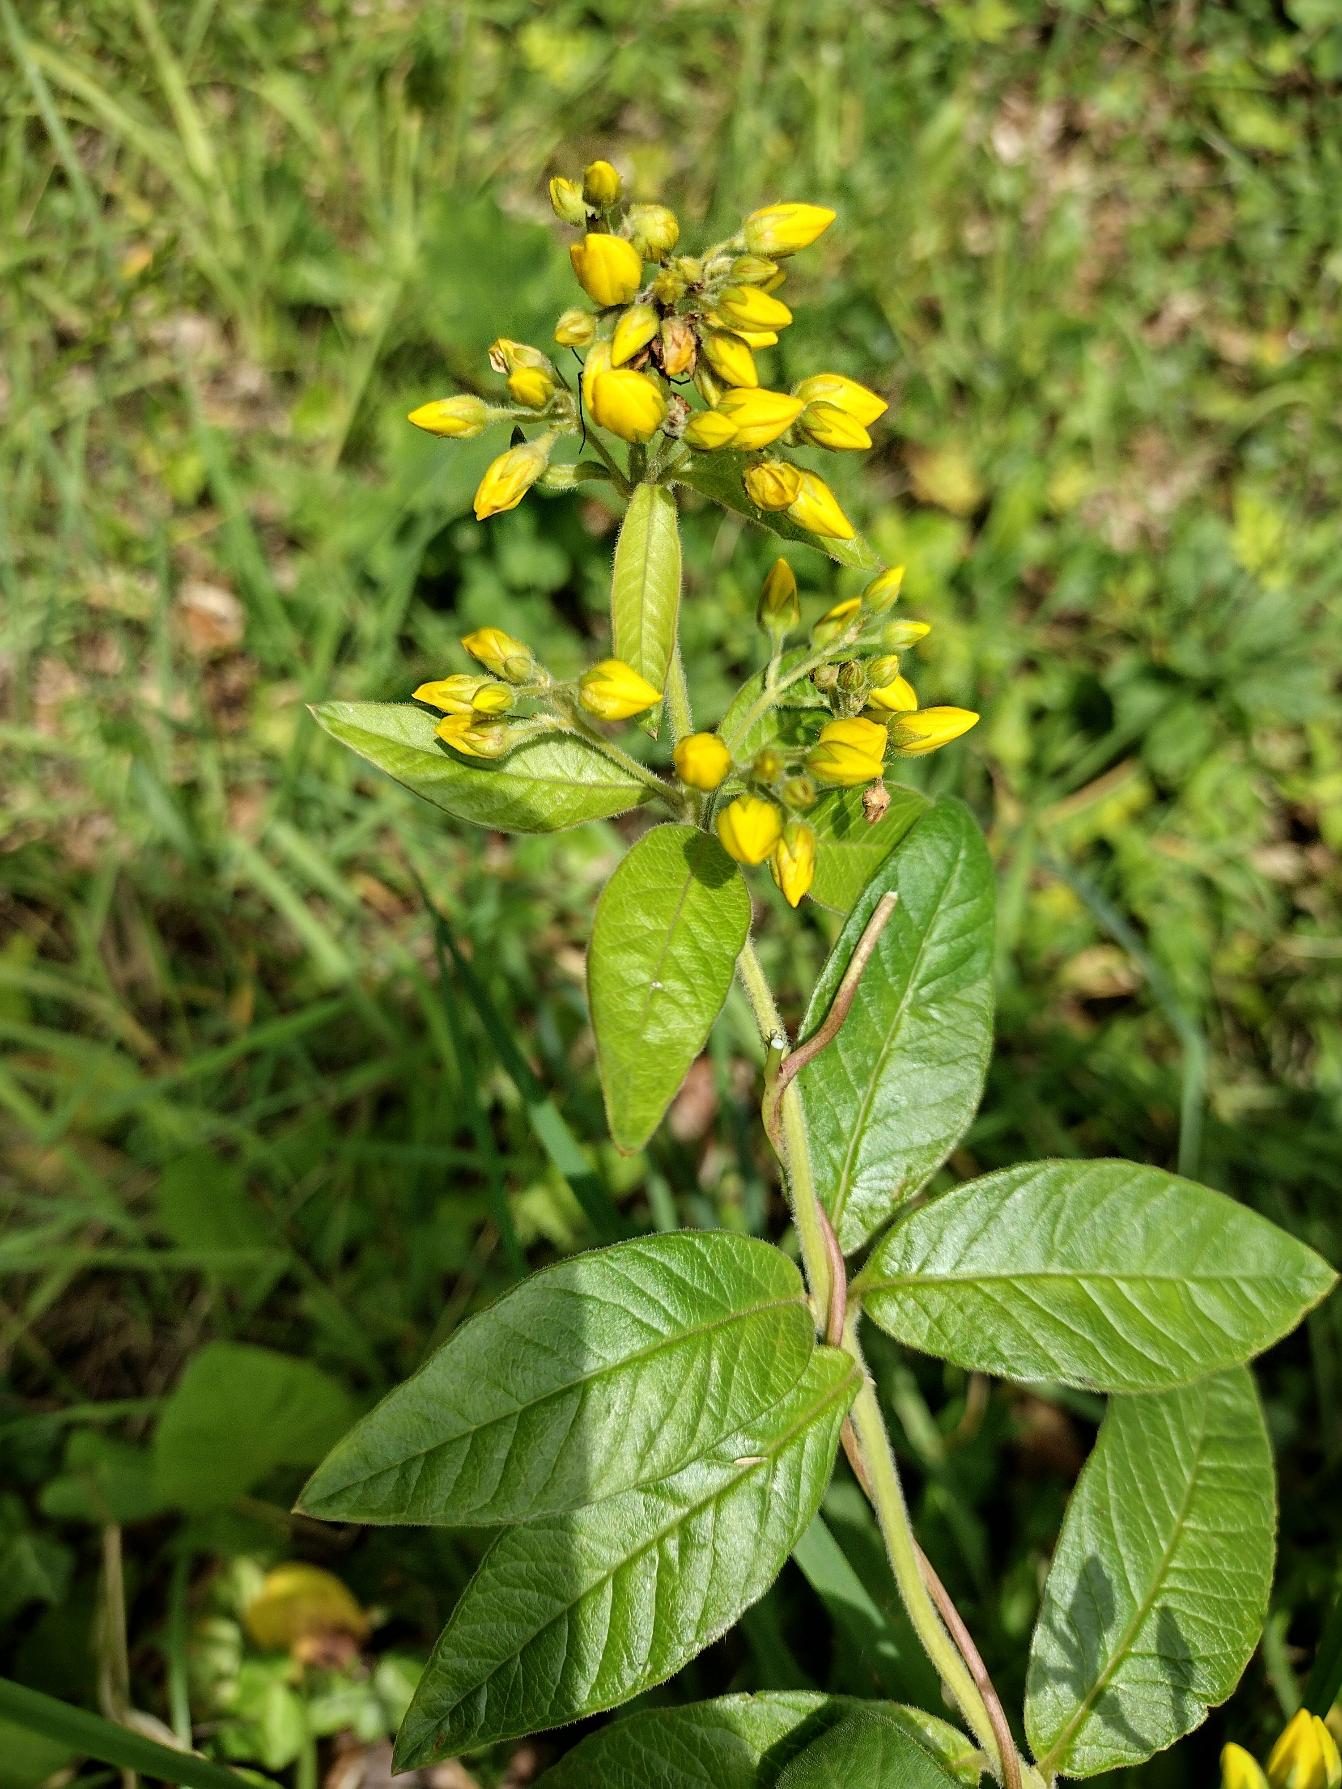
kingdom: Plantae
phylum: Tracheophyta
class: Magnoliopsida
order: Ericales
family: Primulaceae
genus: Lysimachia
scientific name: Lysimachia vulgaris
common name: Almindelig fredløs
